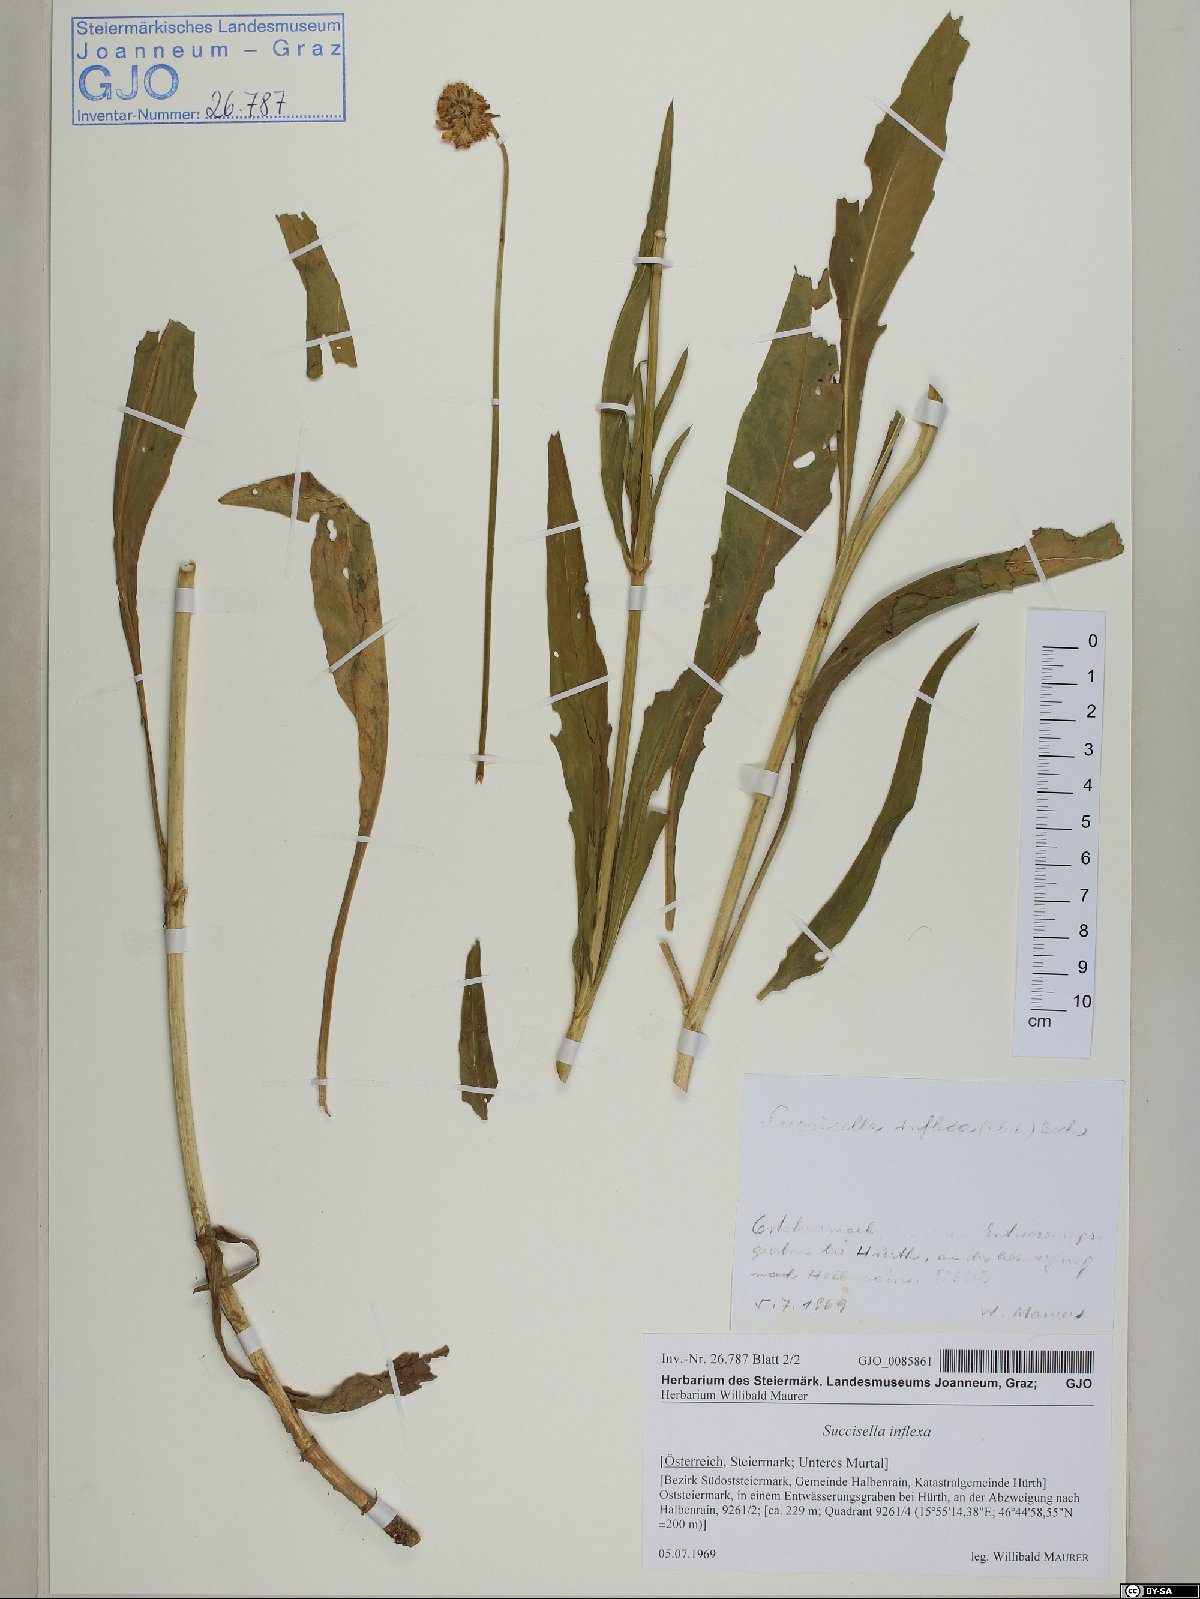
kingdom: Plantae
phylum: Tracheophyta
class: Magnoliopsida
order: Dipsacales
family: Caprifoliaceae
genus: Succisella
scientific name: Succisella inflexa
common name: Southern succisella
